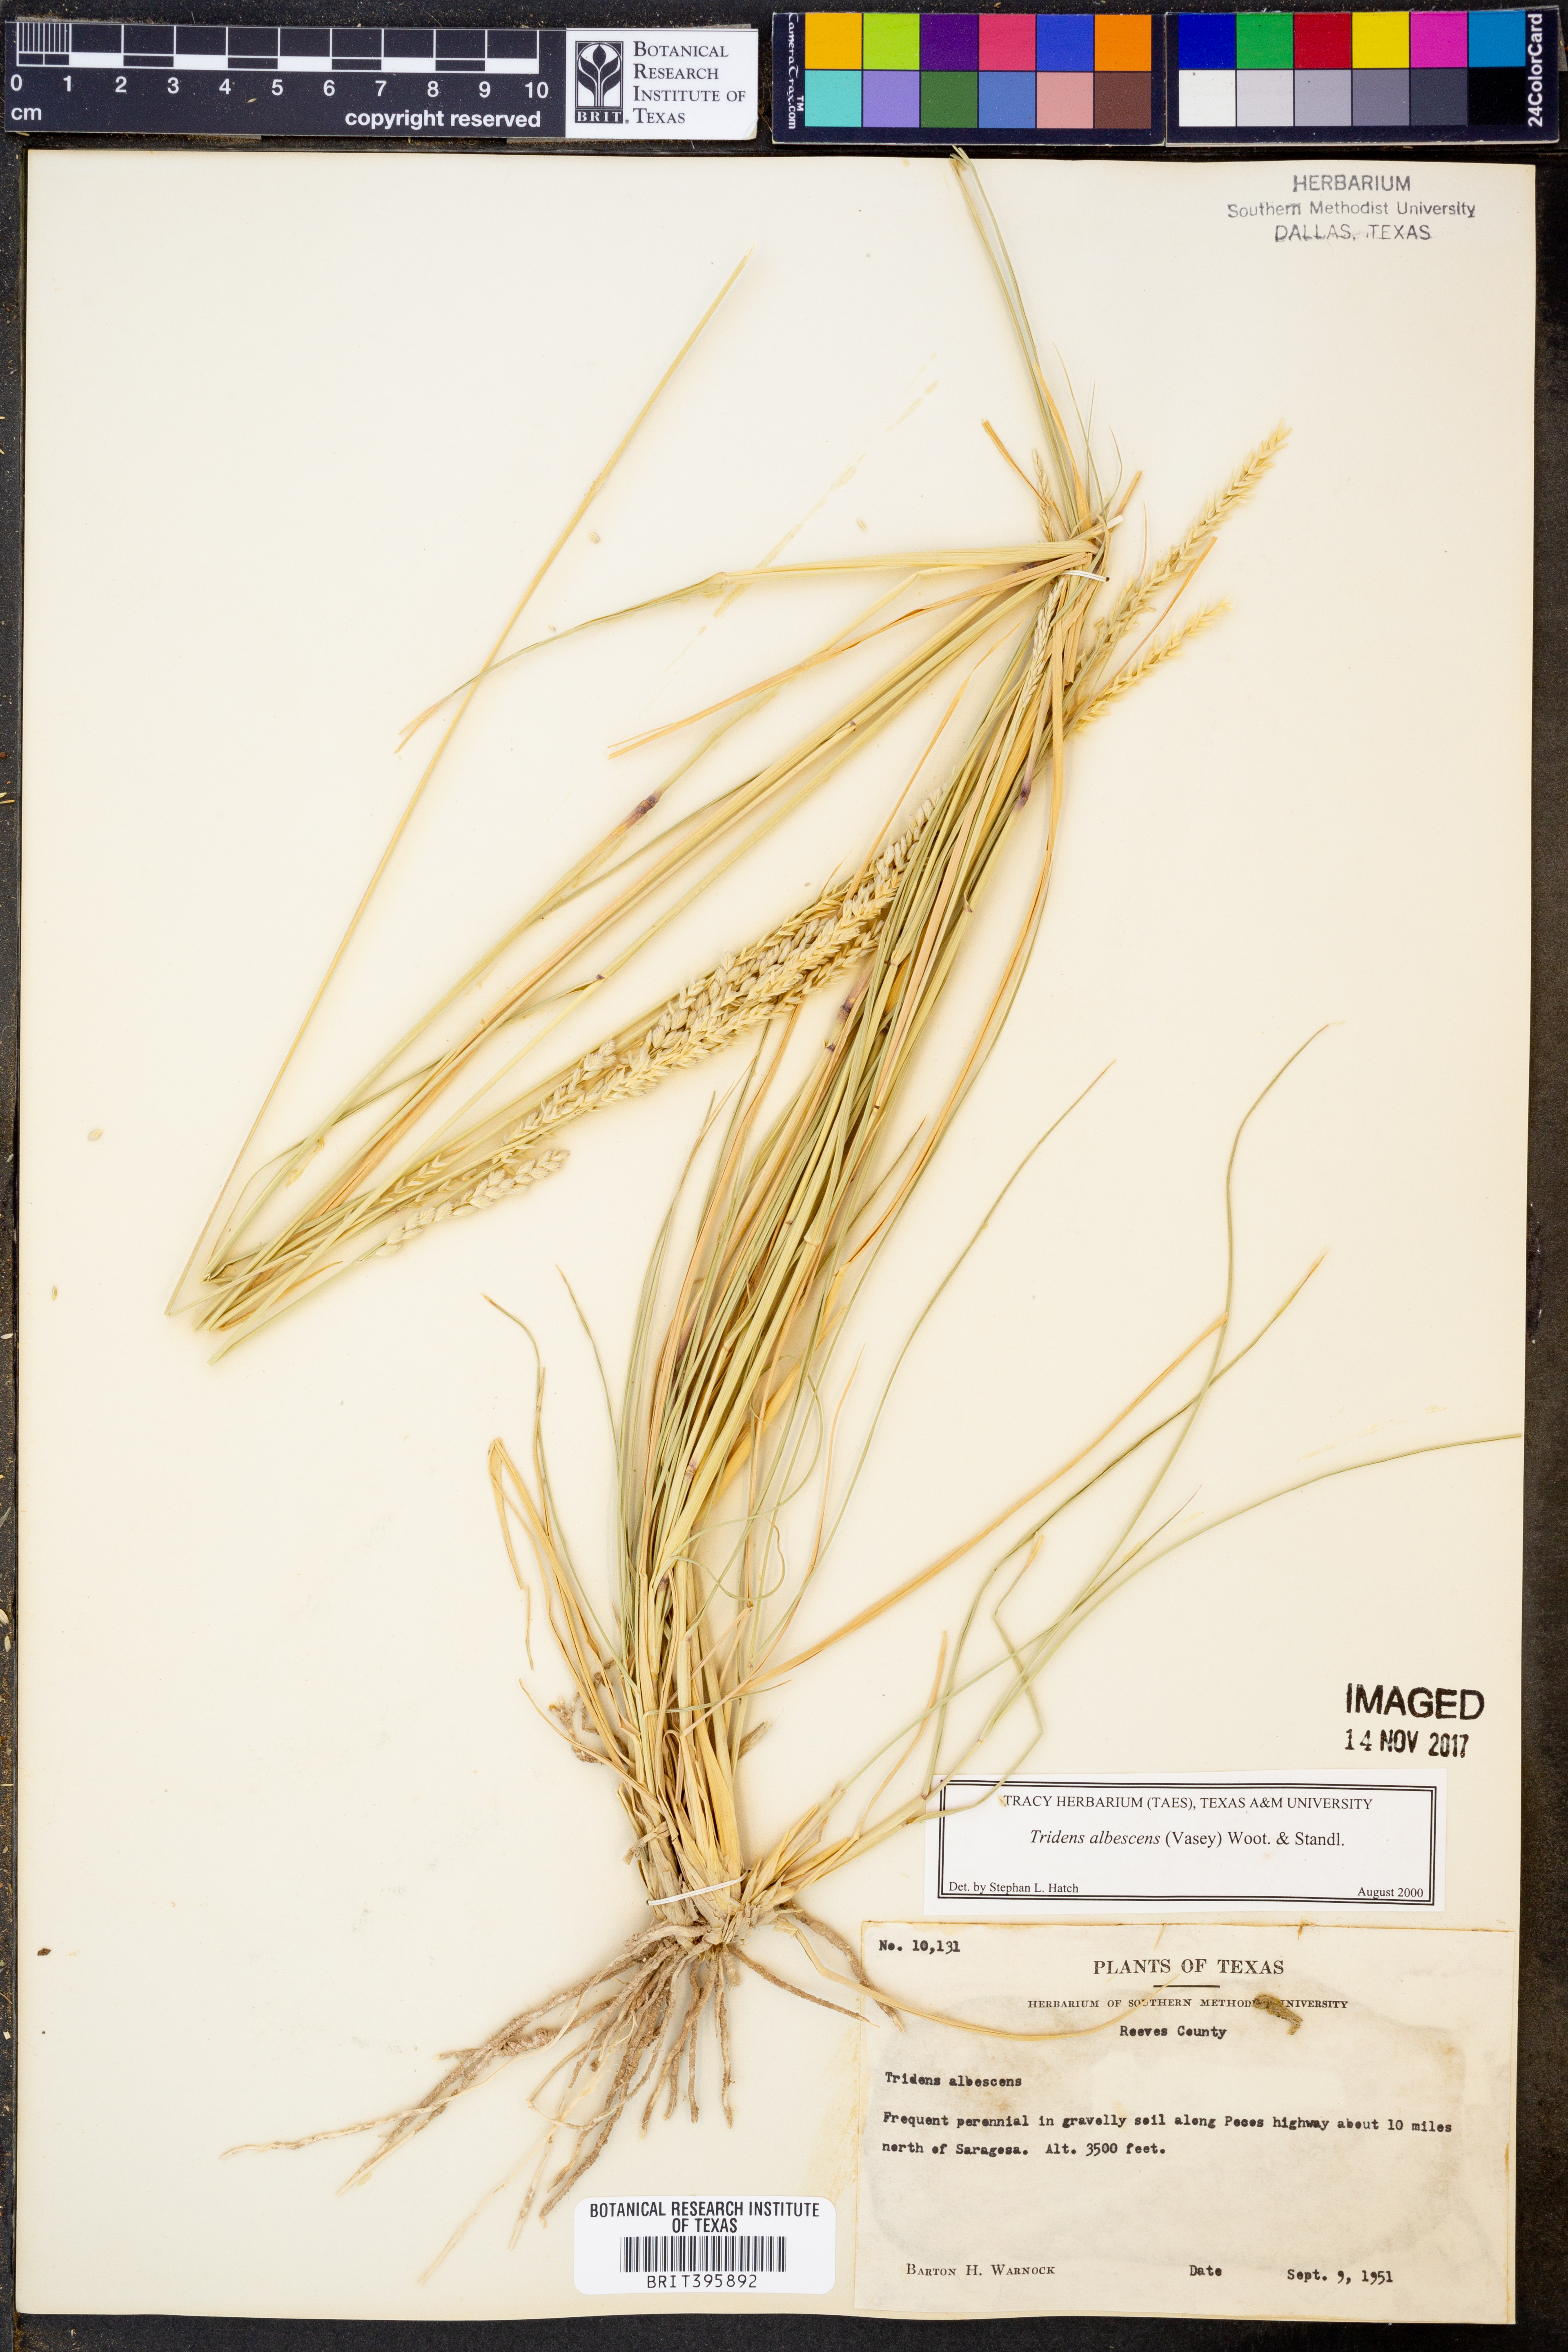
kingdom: Plantae
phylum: Tracheophyta
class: Liliopsida
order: Poales
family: Poaceae
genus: Tridens
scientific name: Tridens albescens
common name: White tridens
